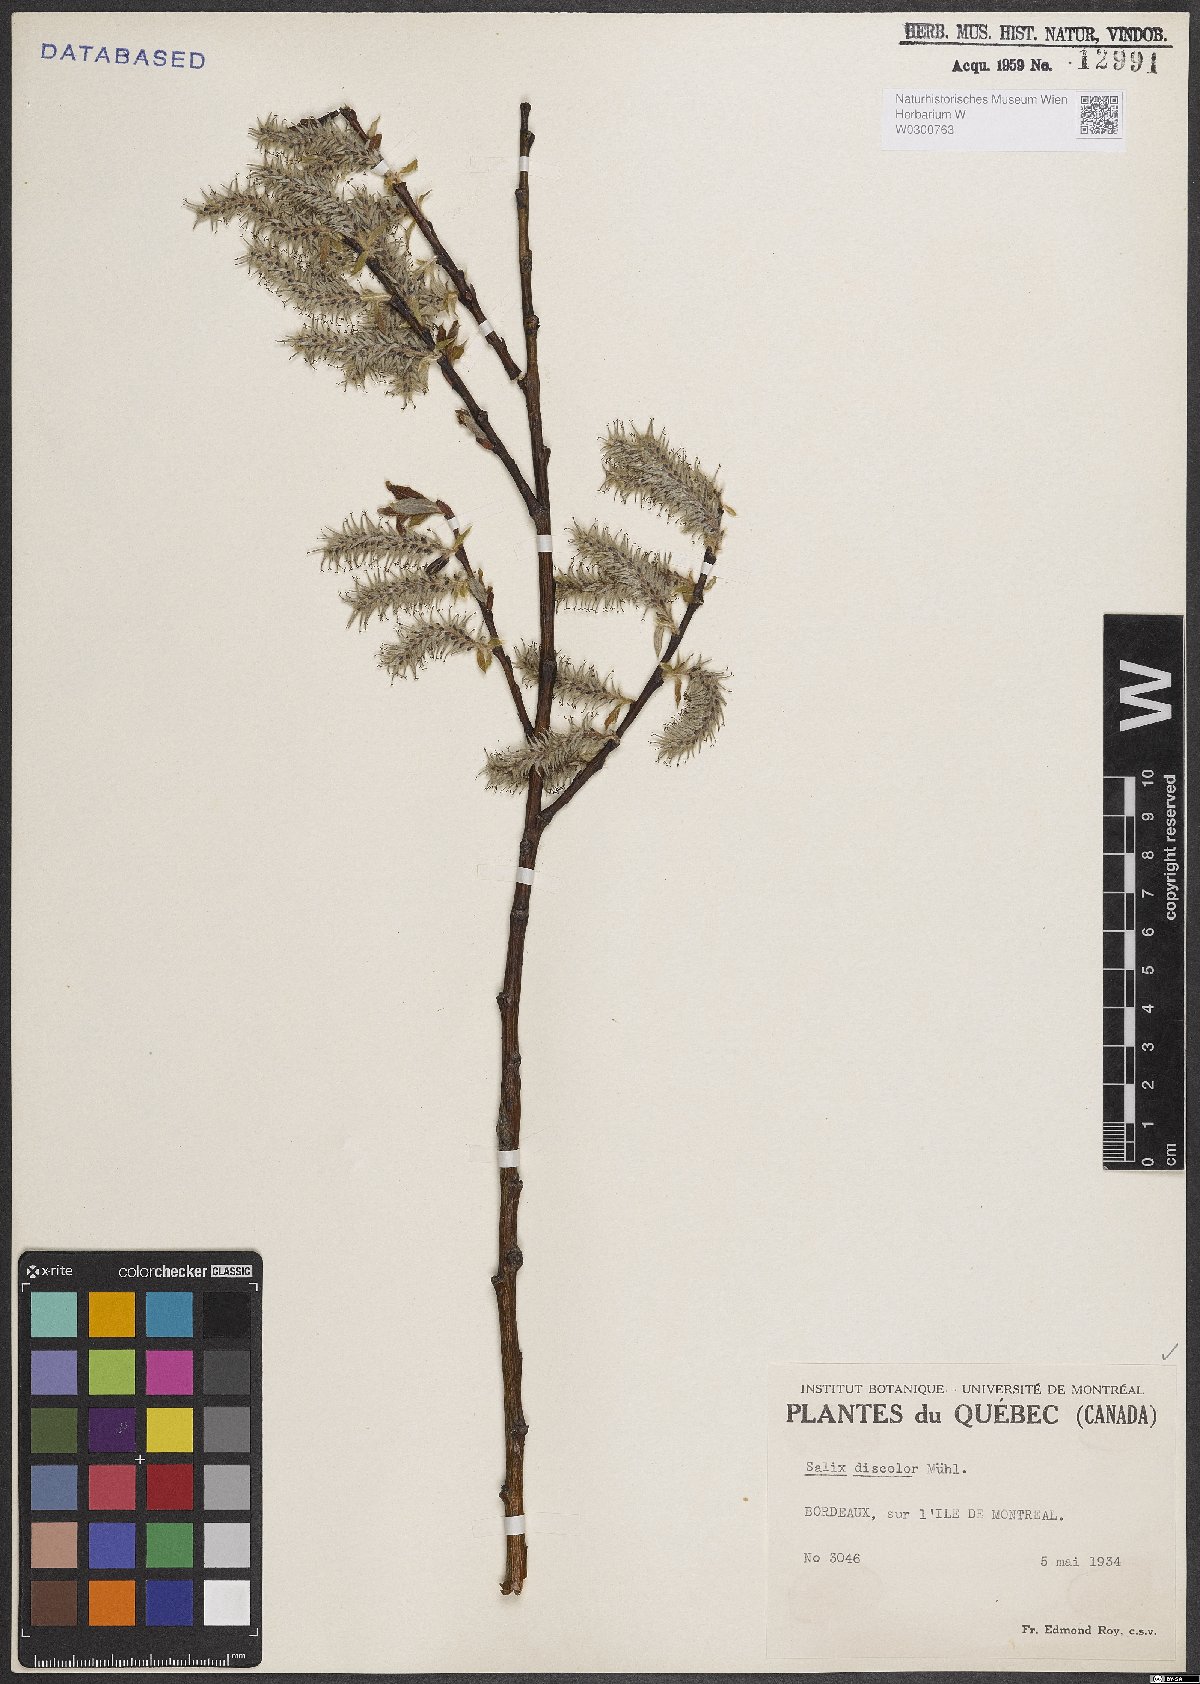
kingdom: Plantae
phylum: Tracheophyta
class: Magnoliopsida
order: Malpighiales
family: Salicaceae
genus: Salix
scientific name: Salix discolor
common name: Glaucous willow
